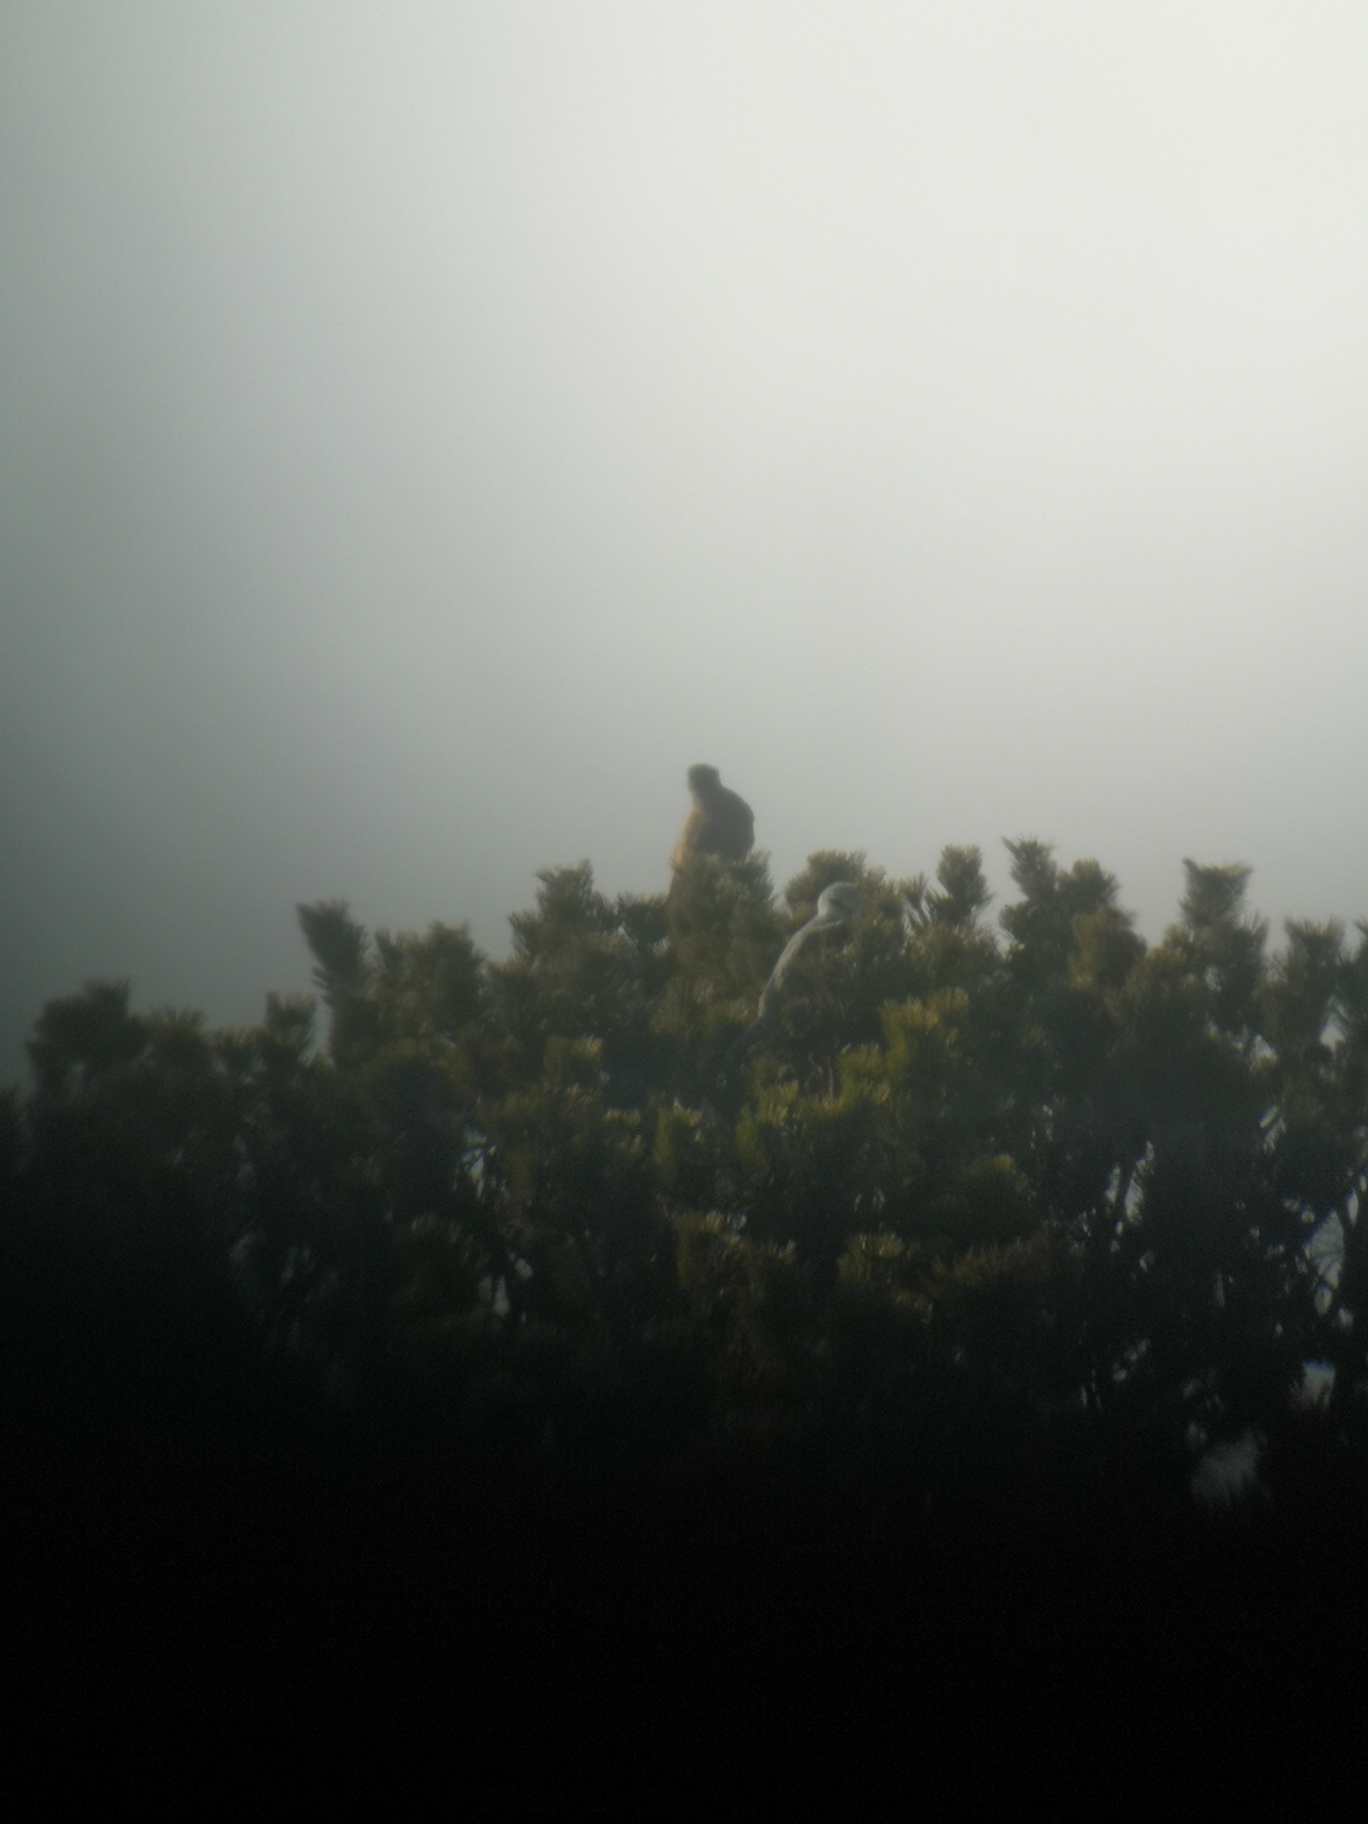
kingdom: Animalia
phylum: Chordata
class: Aves
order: Accipitriformes
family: Accipitridae
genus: Elanus
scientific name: Elanus caeruleus
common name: Blå glente
